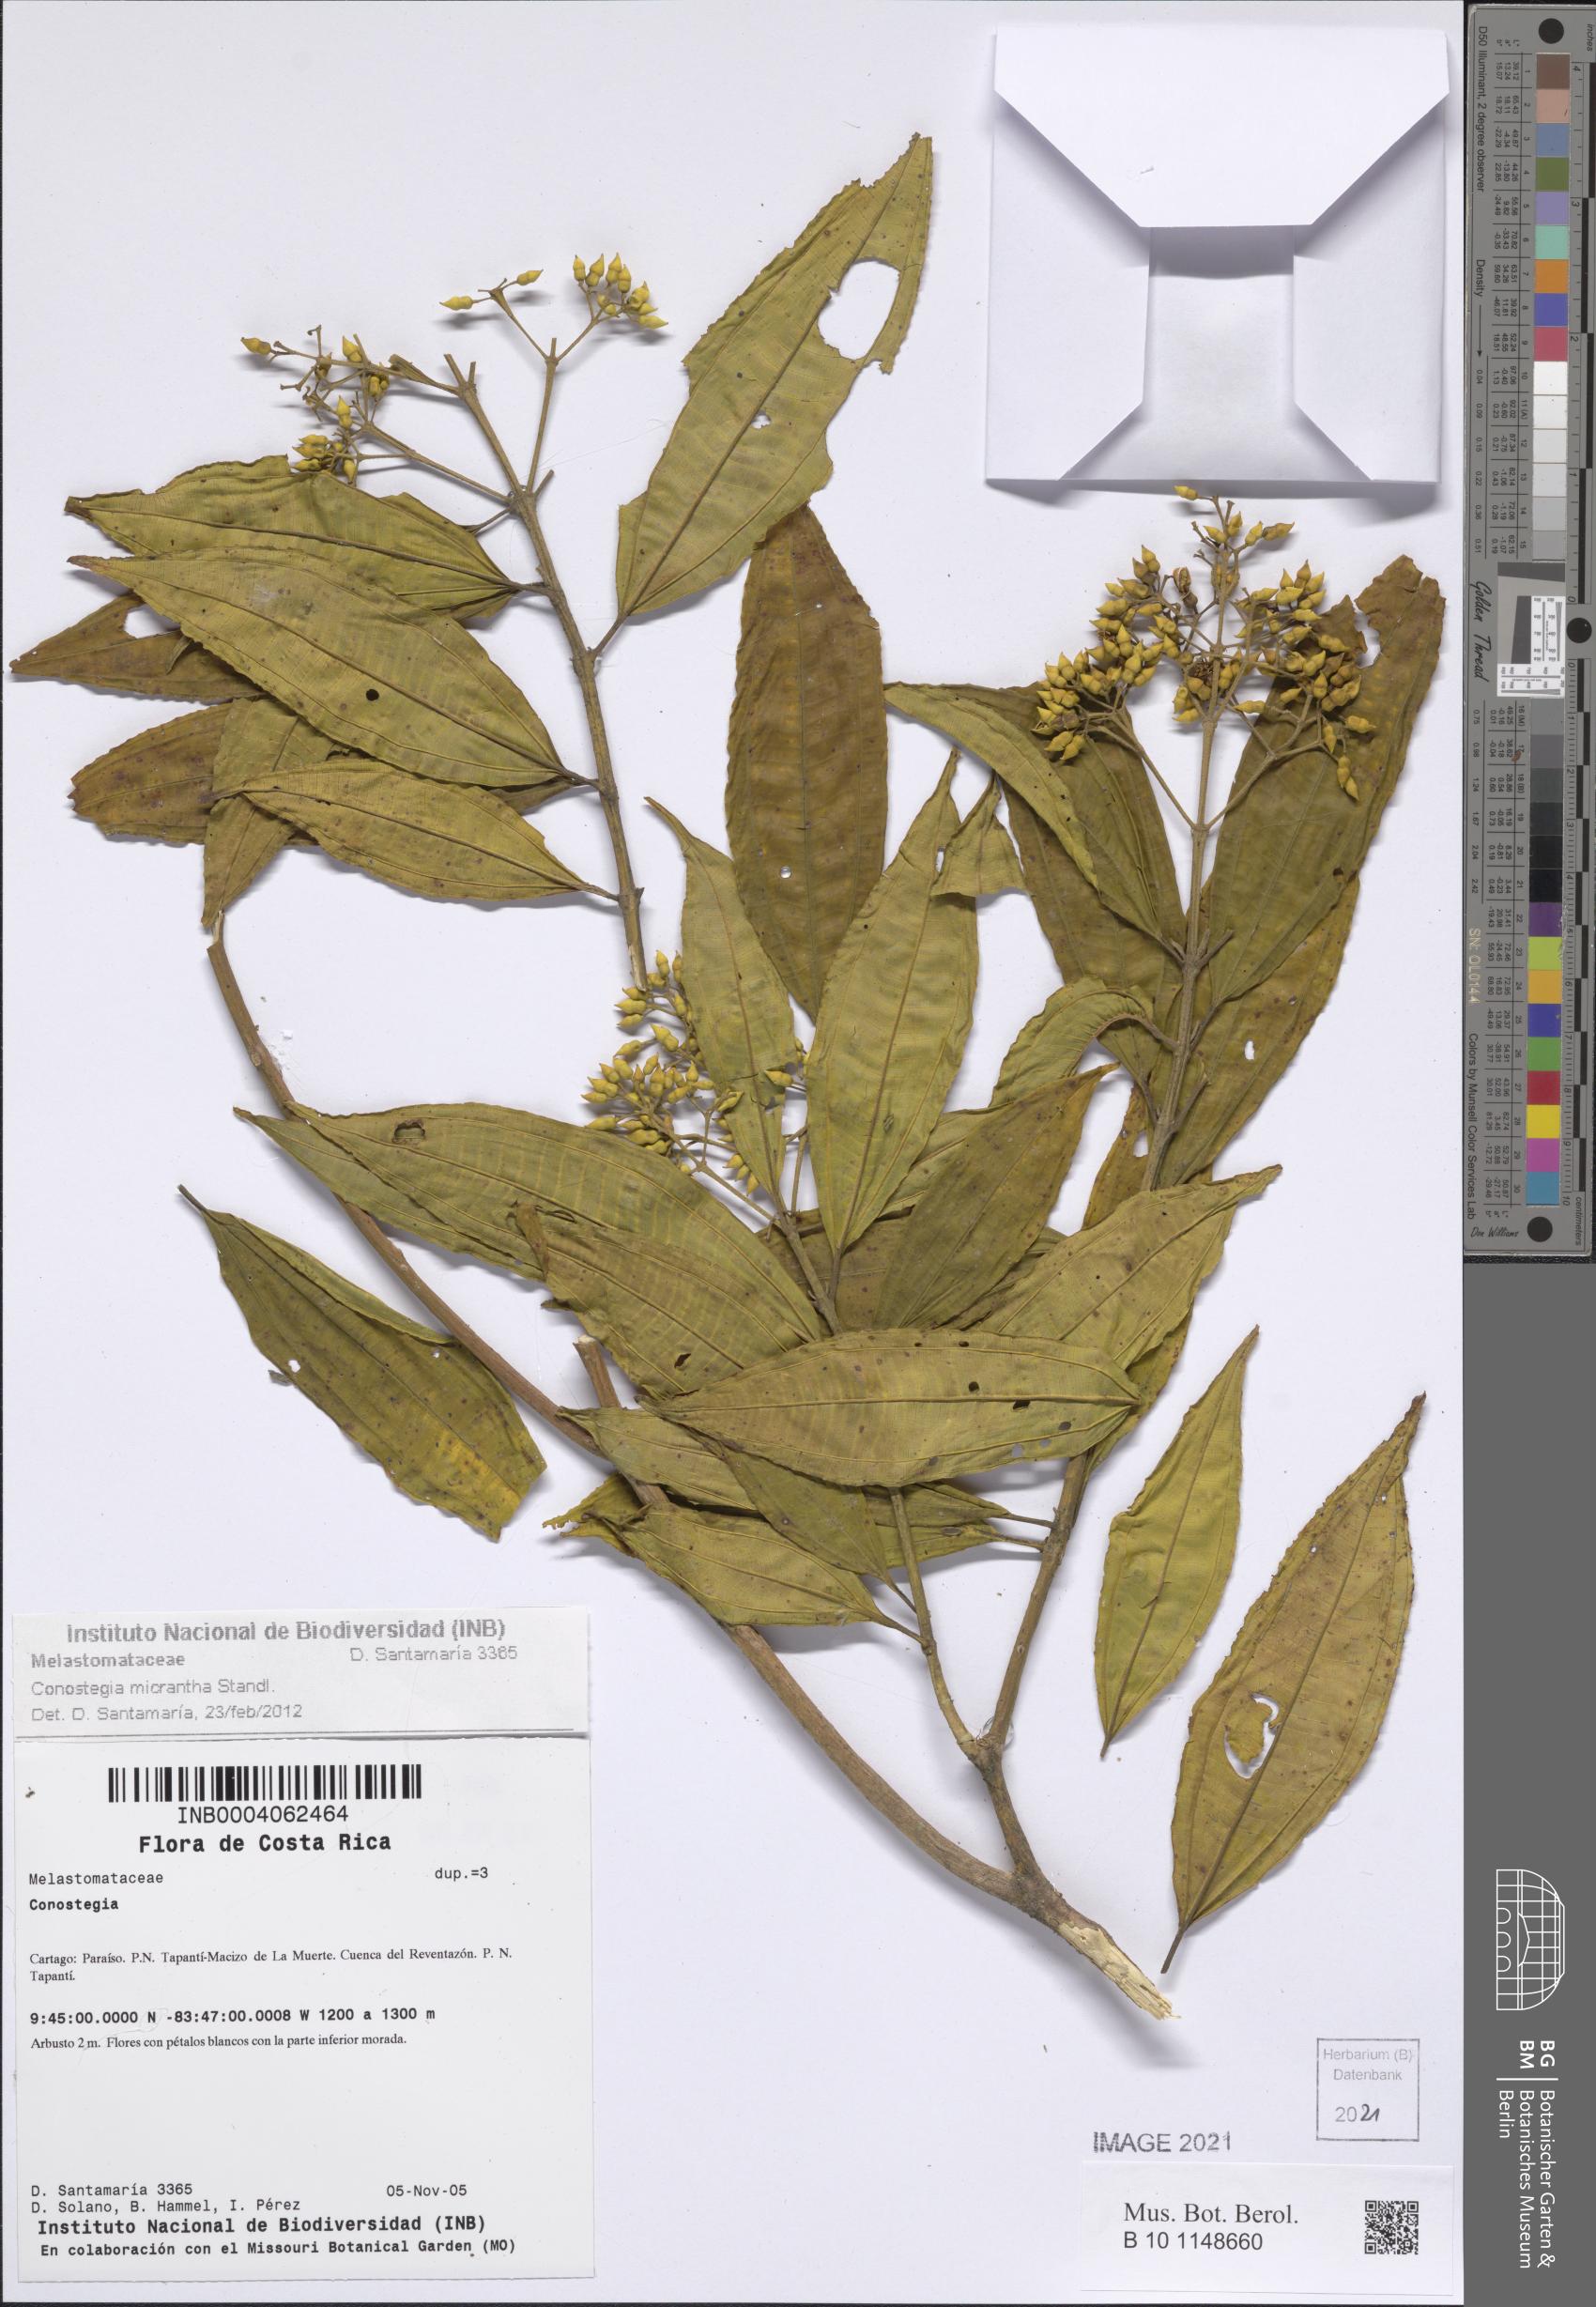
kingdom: Plantae
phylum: Tracheophyta
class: Magnoliopsida
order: Myrtales
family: Melastomataceae
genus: Miconia
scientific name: Miconia conomicrantha
